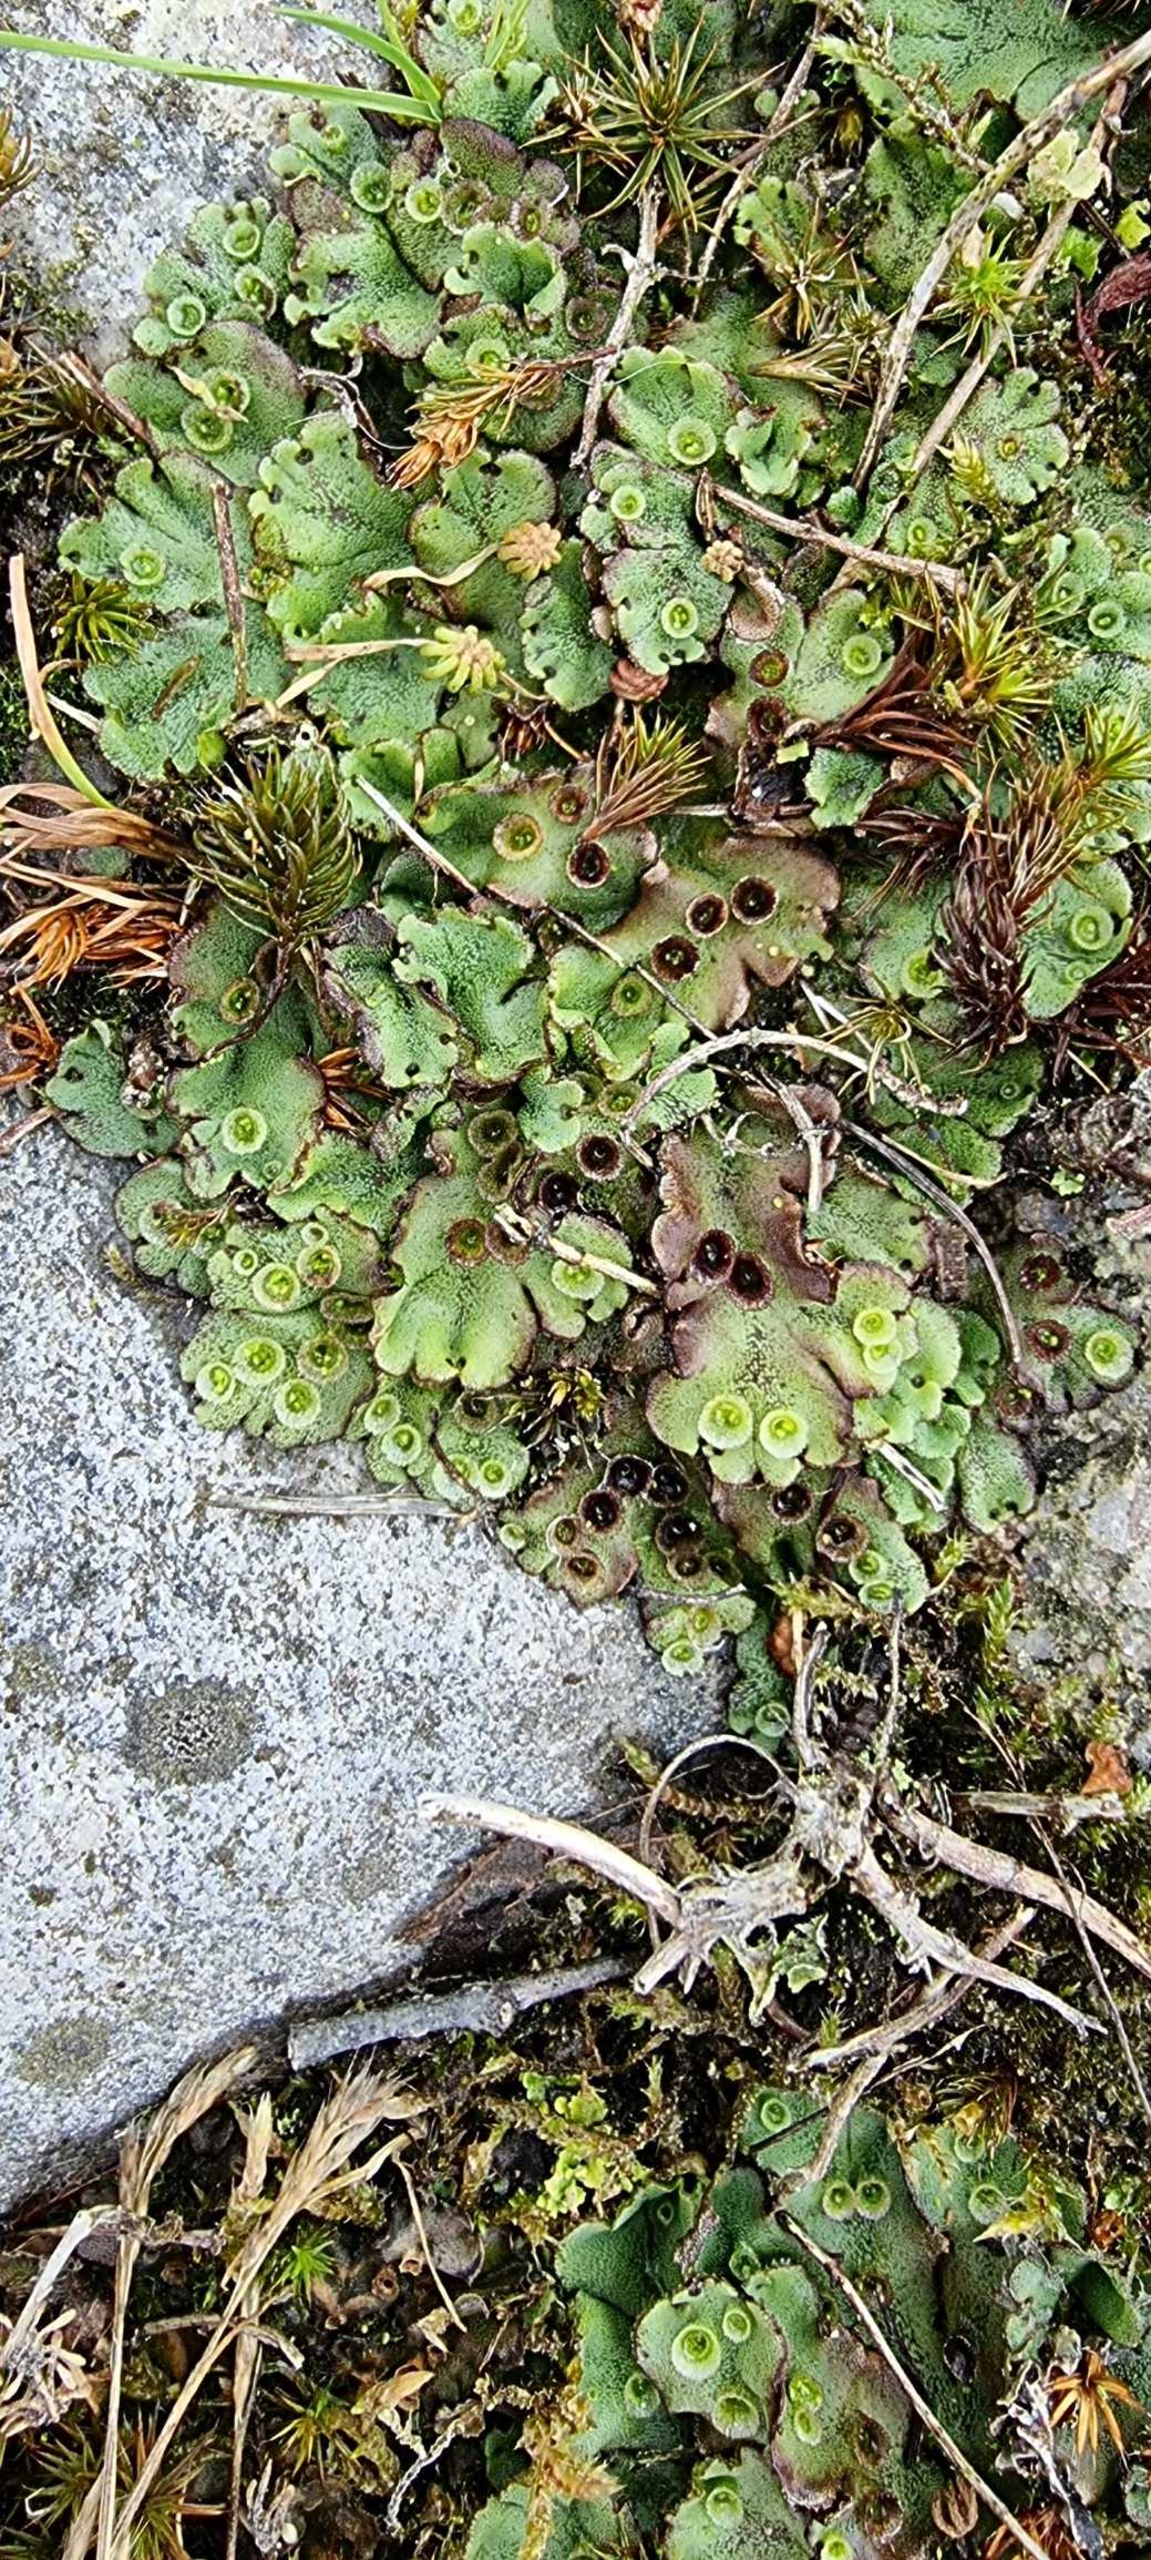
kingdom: Plantae
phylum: Marchantiophyta
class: Marchantiopsida
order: Marchantiales
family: Marchantiaceae
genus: Marchantia
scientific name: Marchantia polymorpha
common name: Almindelig lungemos (underart)
